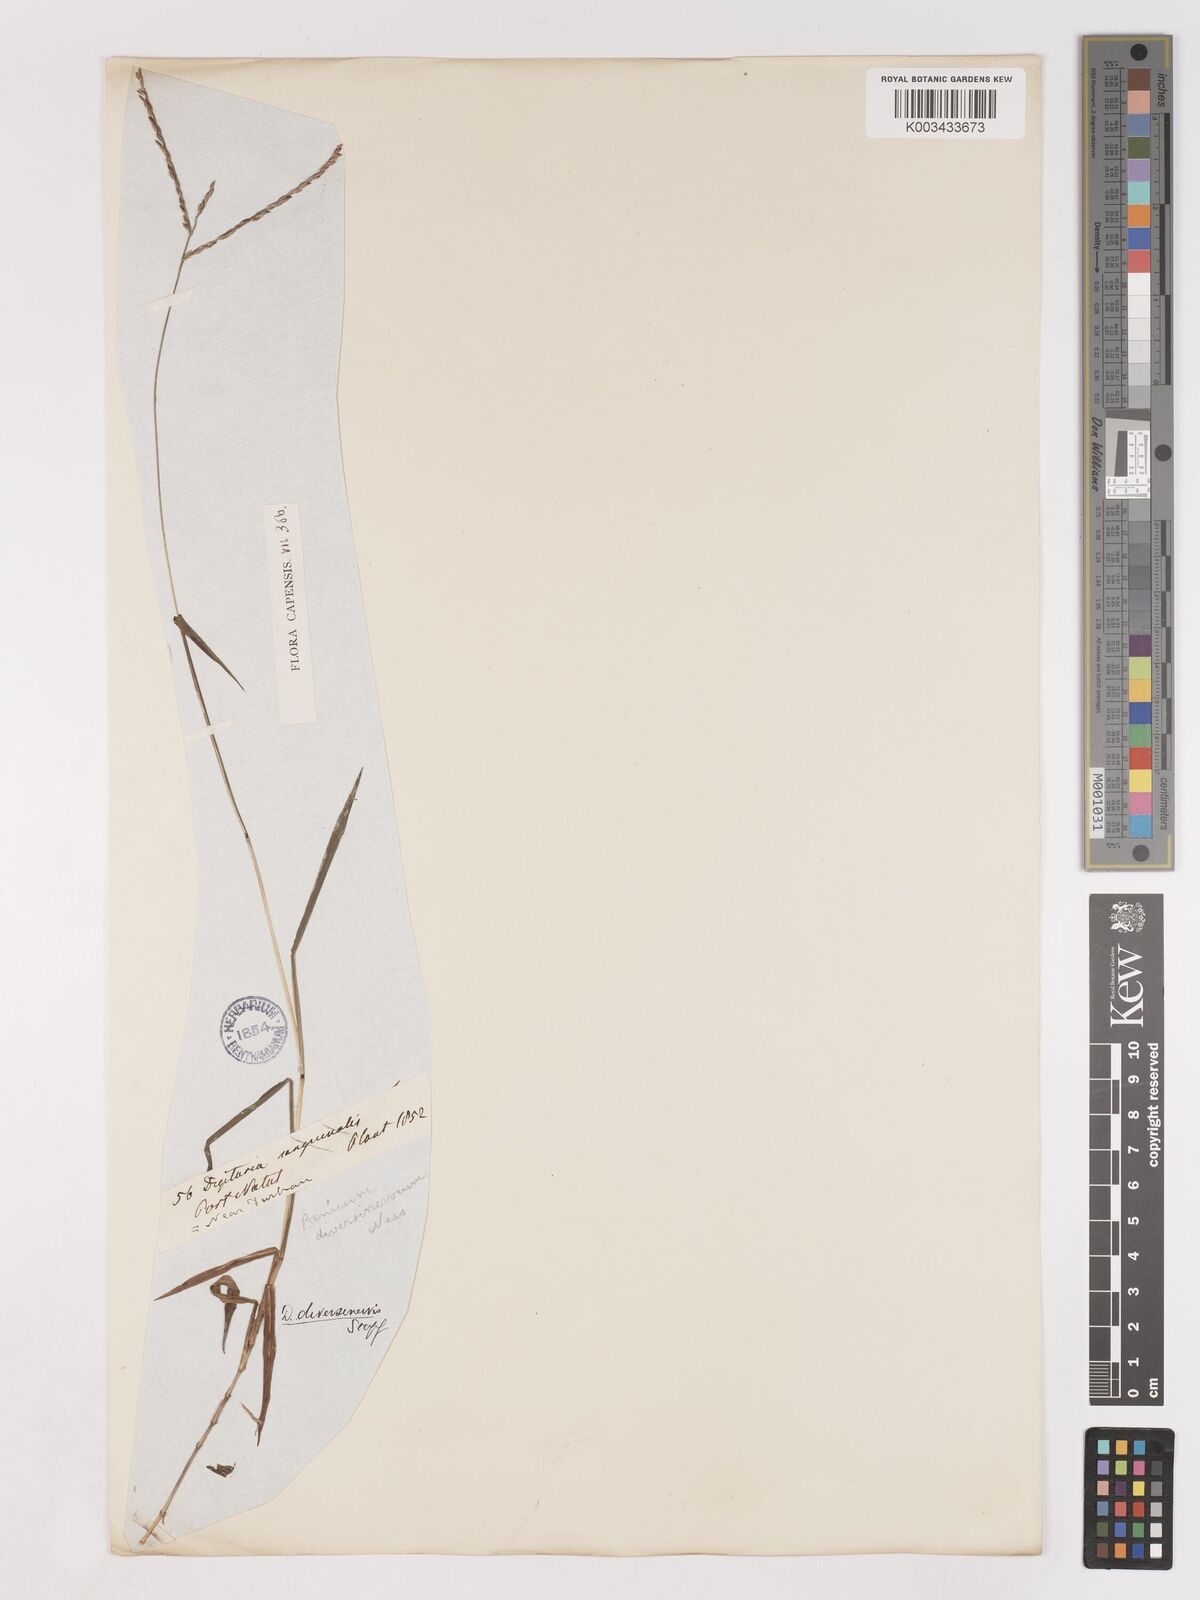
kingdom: Plantae
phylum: Tracheophyta
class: Liliopsida
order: Poales
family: Poaceae
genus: Digitaria
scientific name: Digitaria diversinervis
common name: Richmond finger grass
